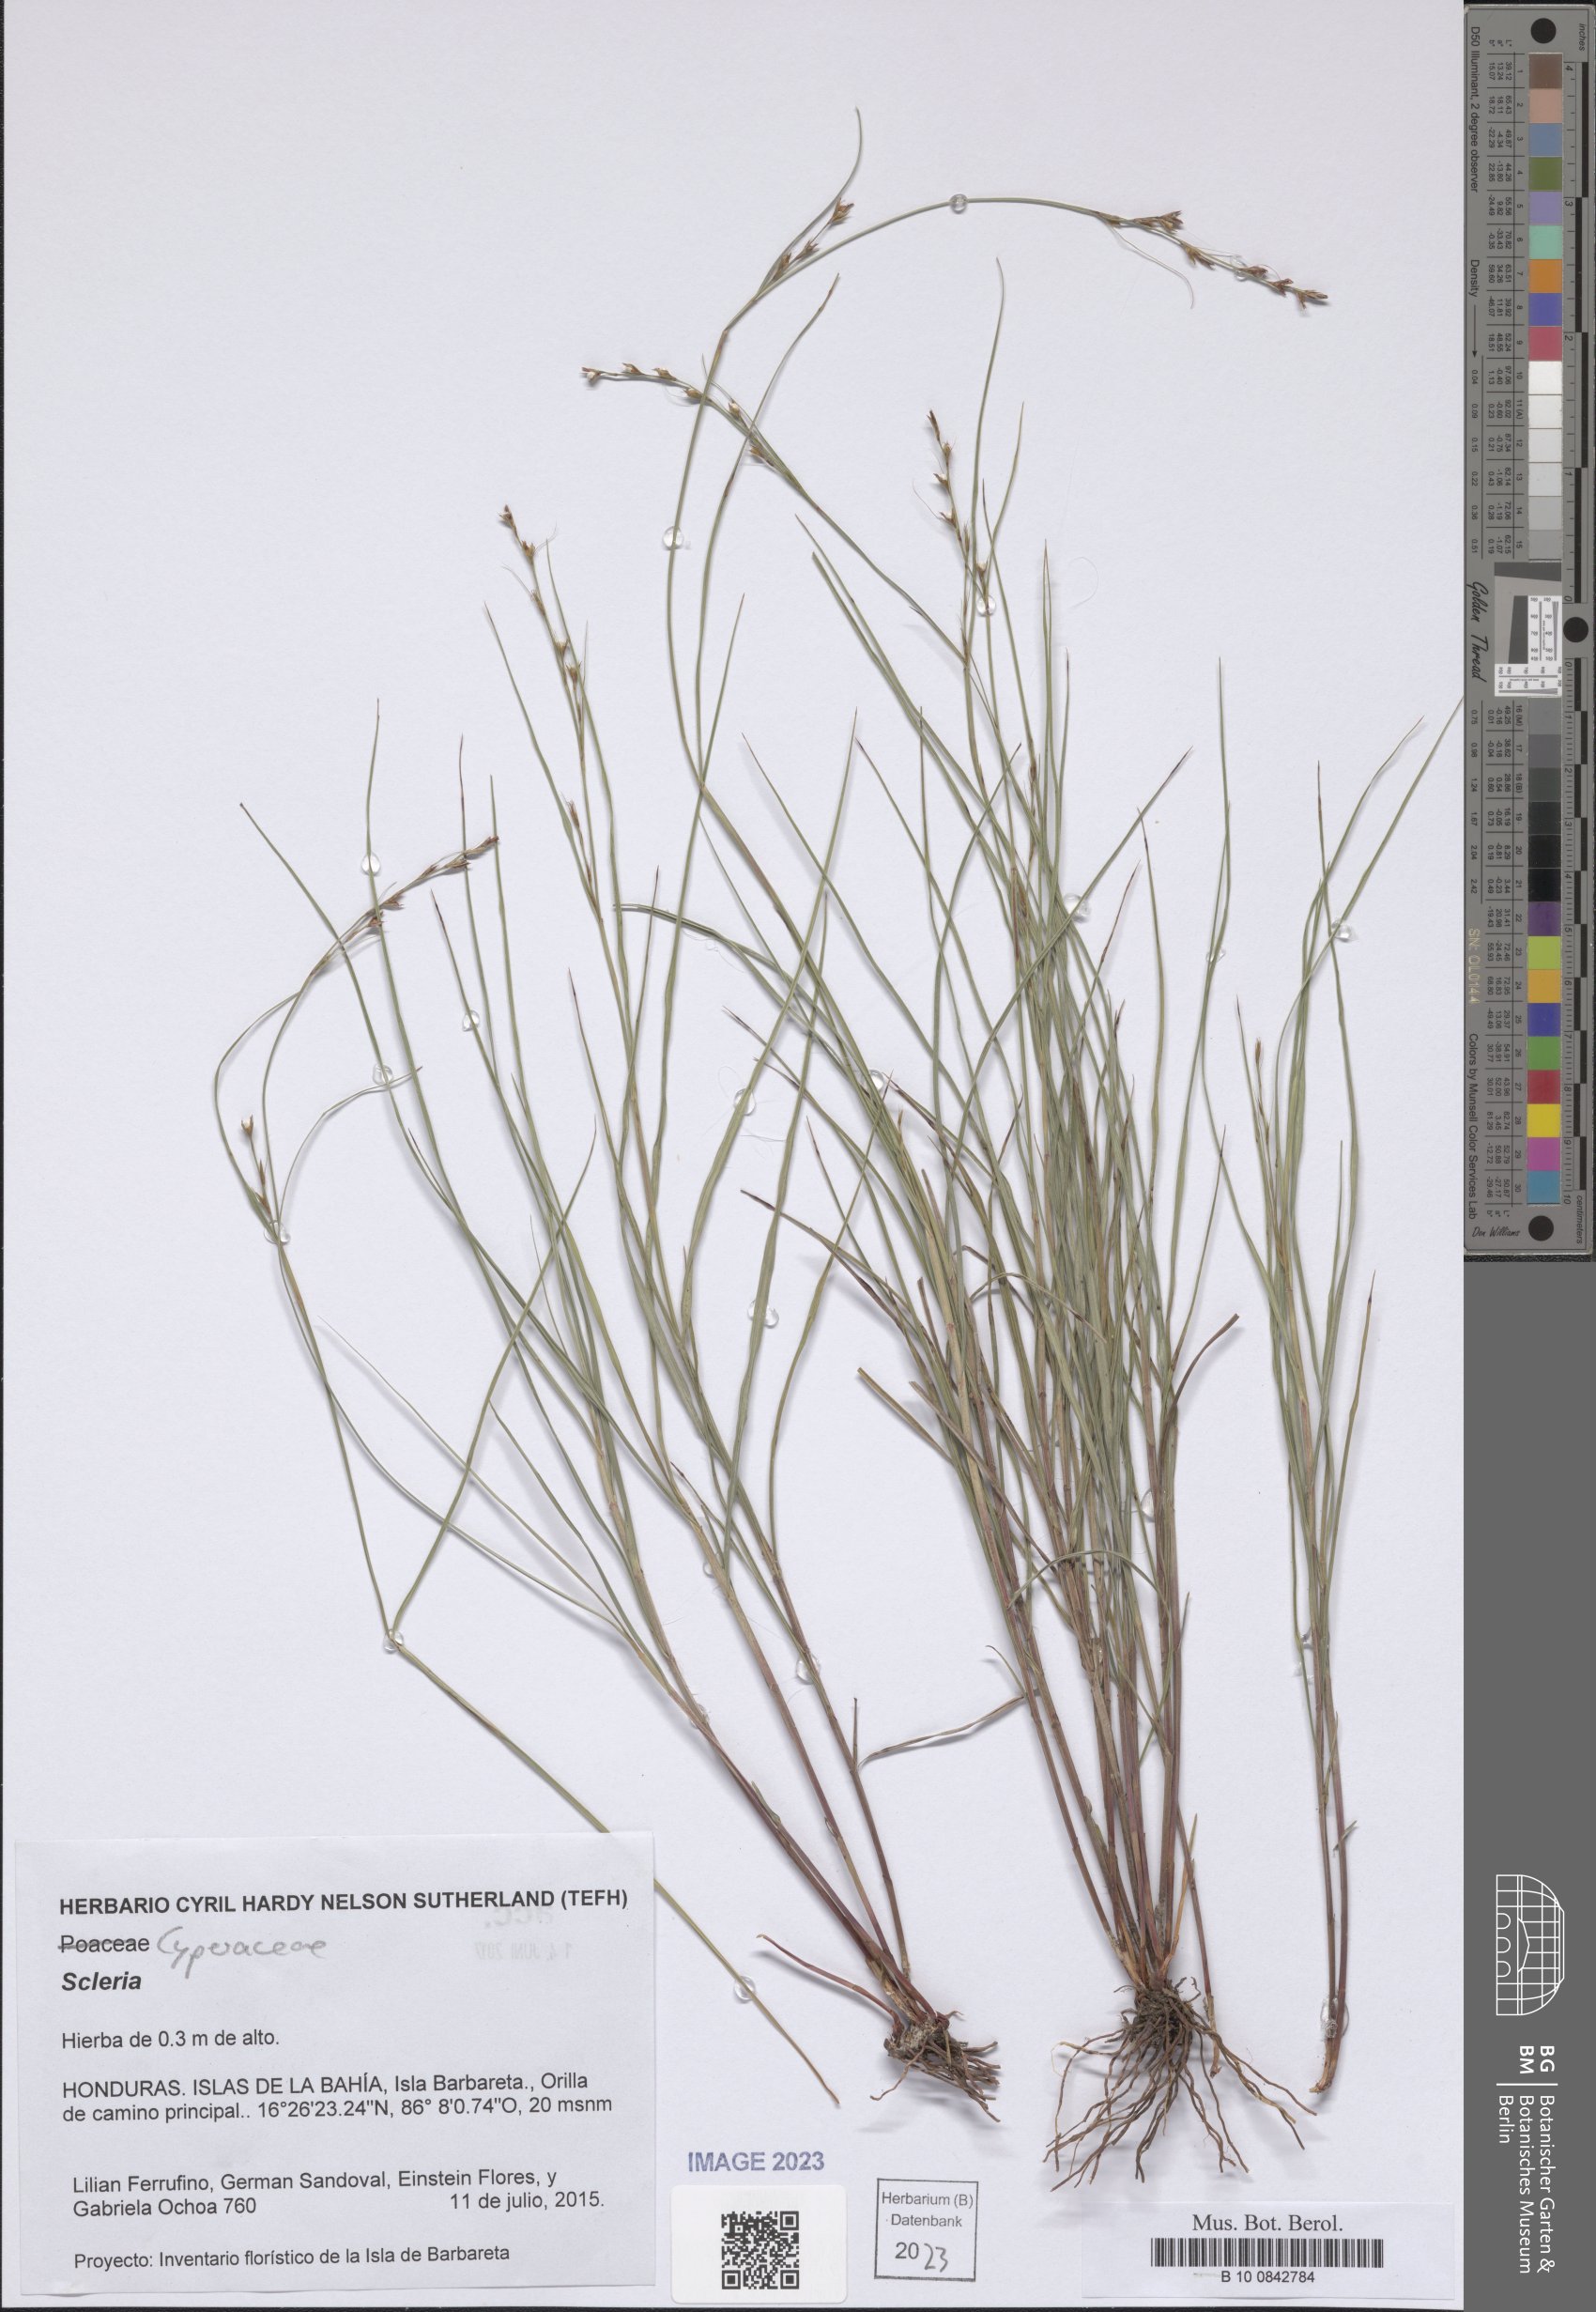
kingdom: Plantae
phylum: Tracheophyta
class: Liliopsida
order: Poales
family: Cyperaceae
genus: Scleria
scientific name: Scleria
